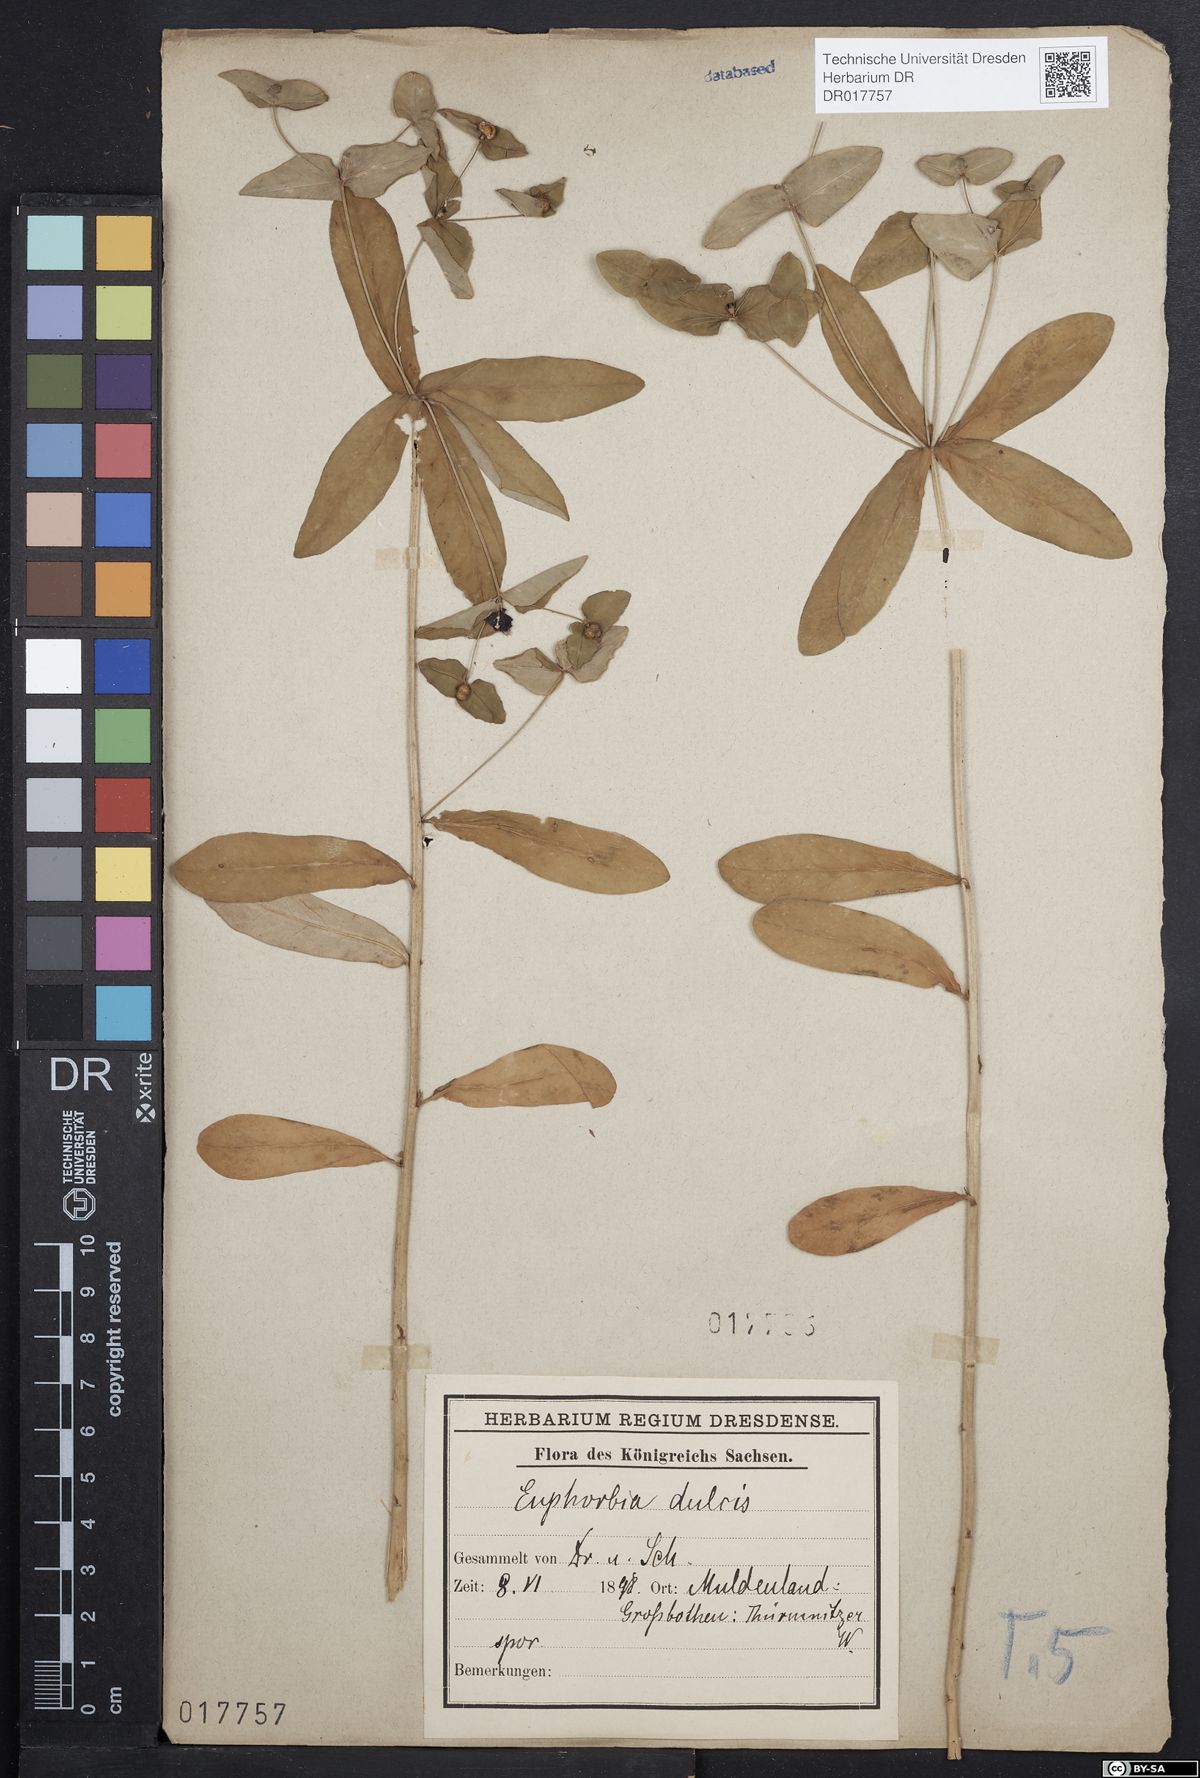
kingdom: Plantae
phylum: Tracheophyta
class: Magnoliopsida
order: Malpighiales
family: Euphorbiaceae
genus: Euphorbia
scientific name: Euphorbia dulcis
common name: Sweet spurge
